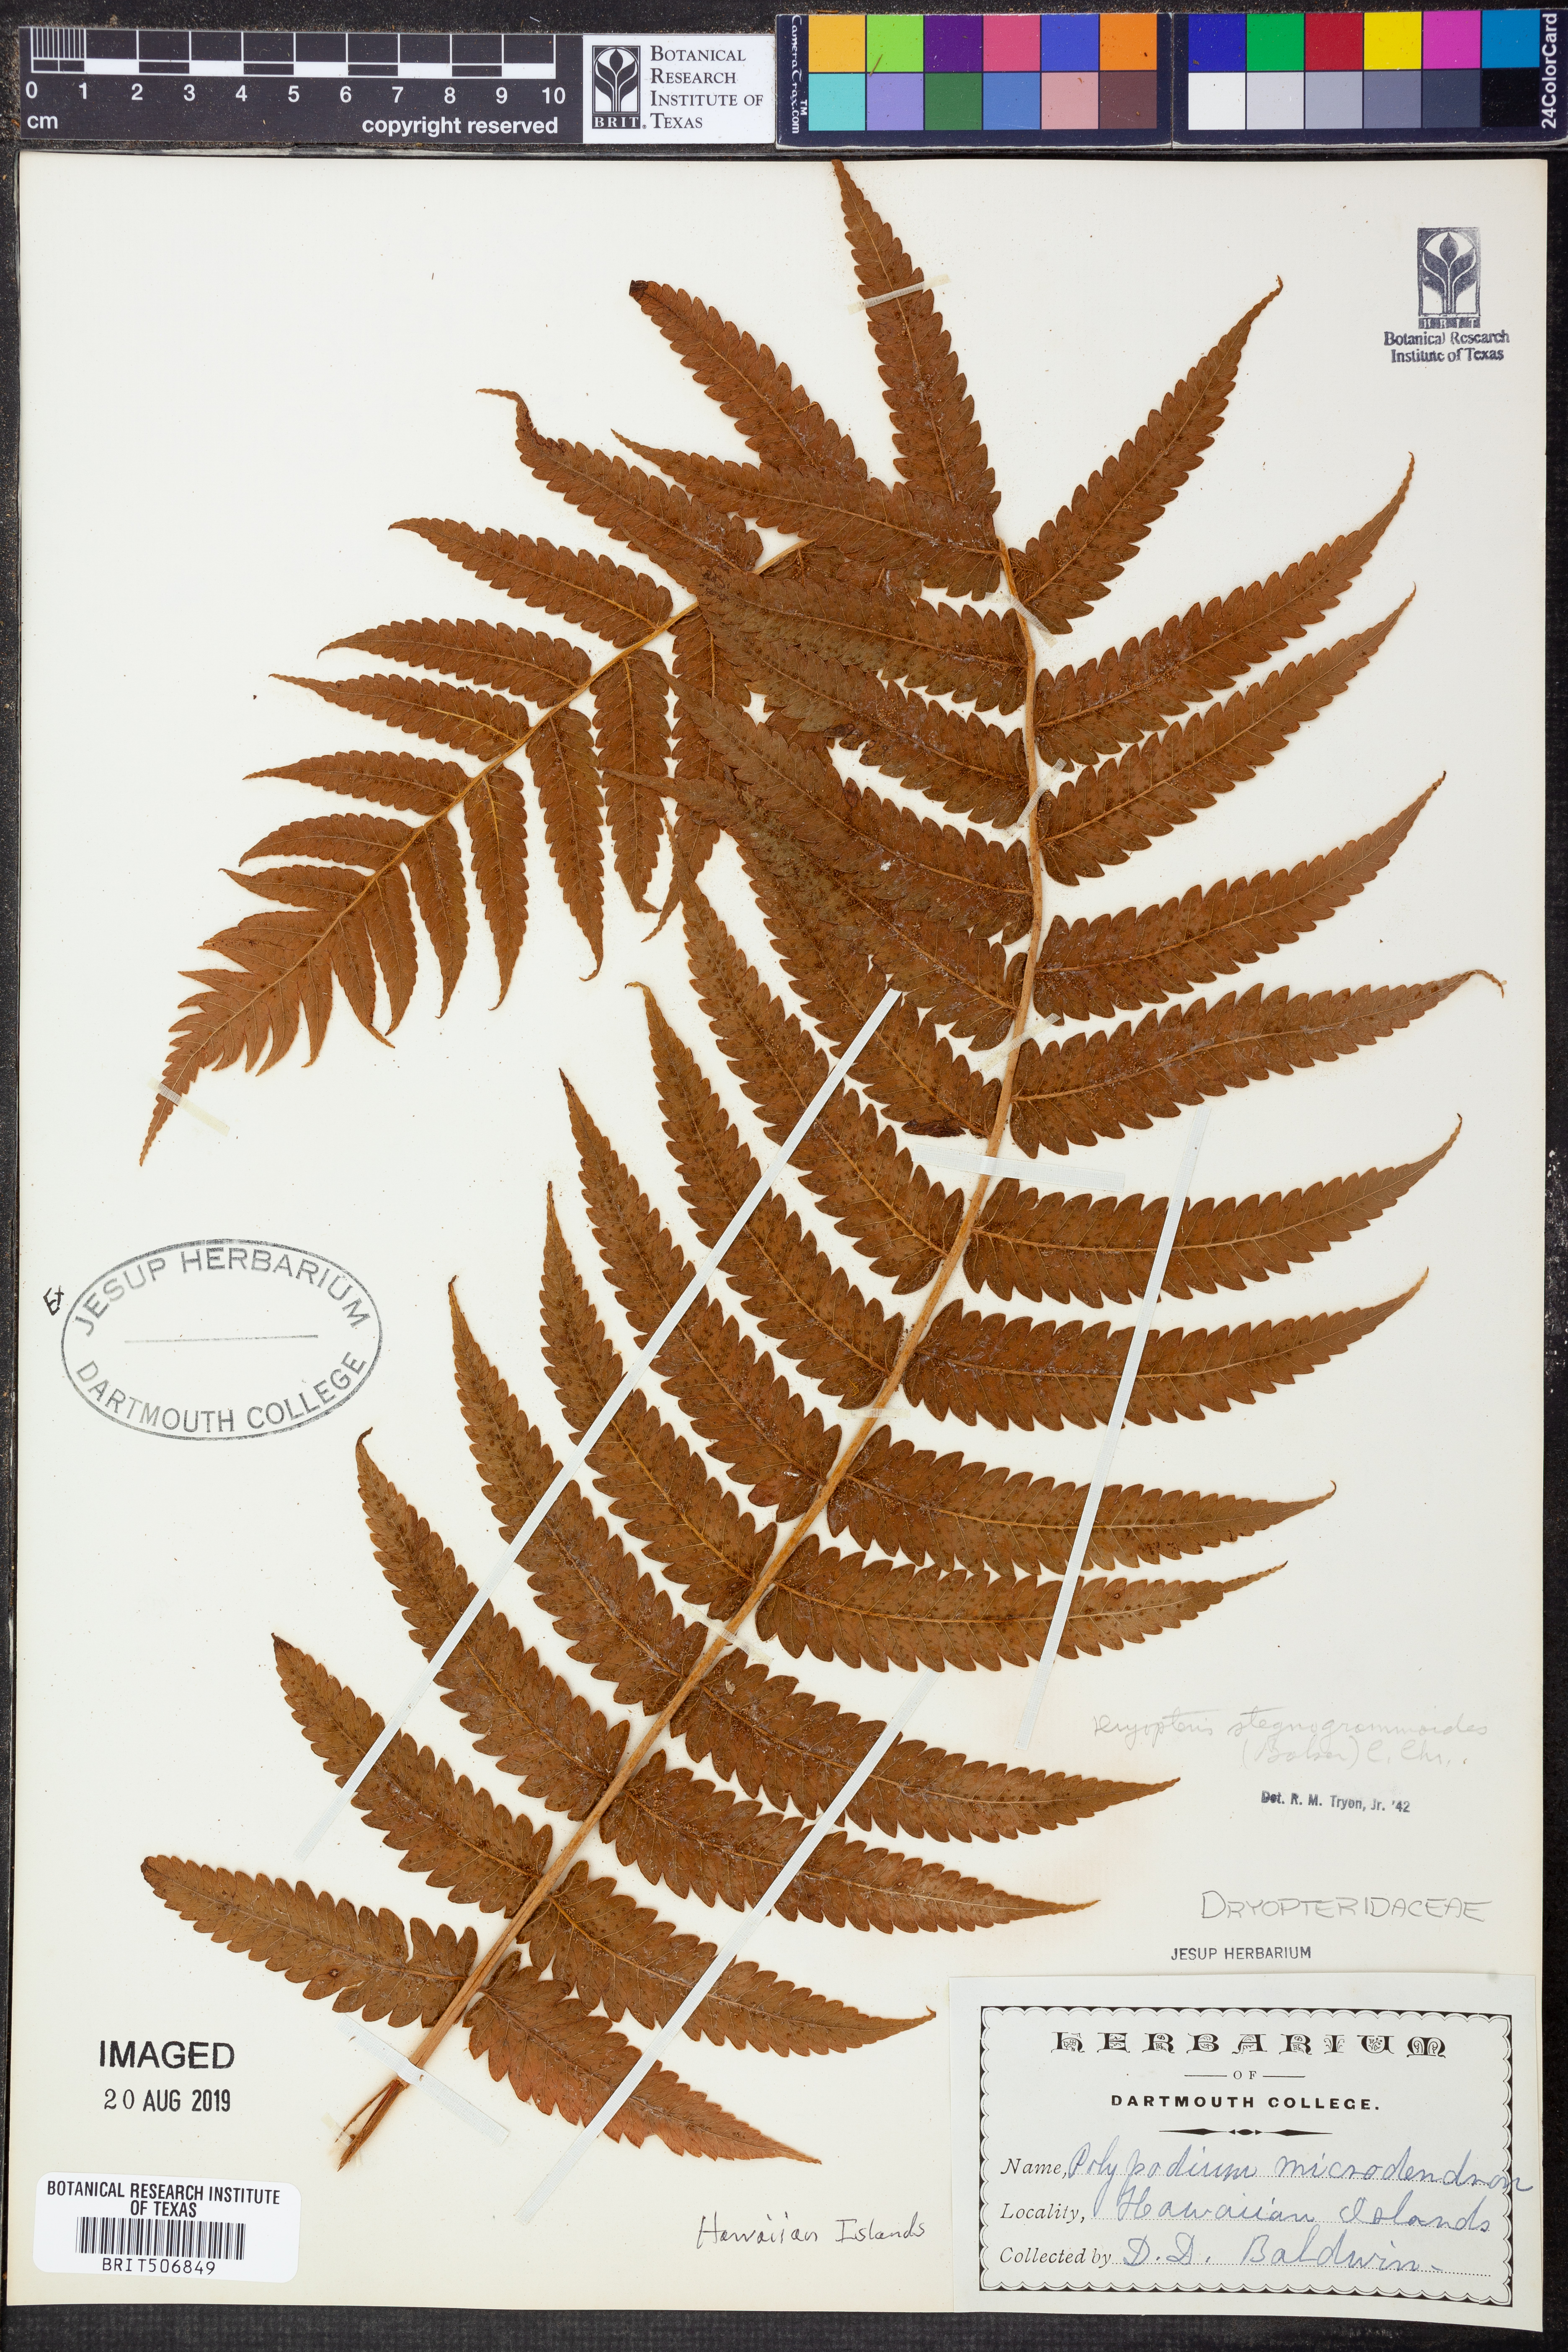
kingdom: Plantae
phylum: Tracheophyta
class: Polypodiopsida
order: Polypodiales
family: Thelypteridaceae
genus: Hoiokula
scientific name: Hoiokula sandwicensis
